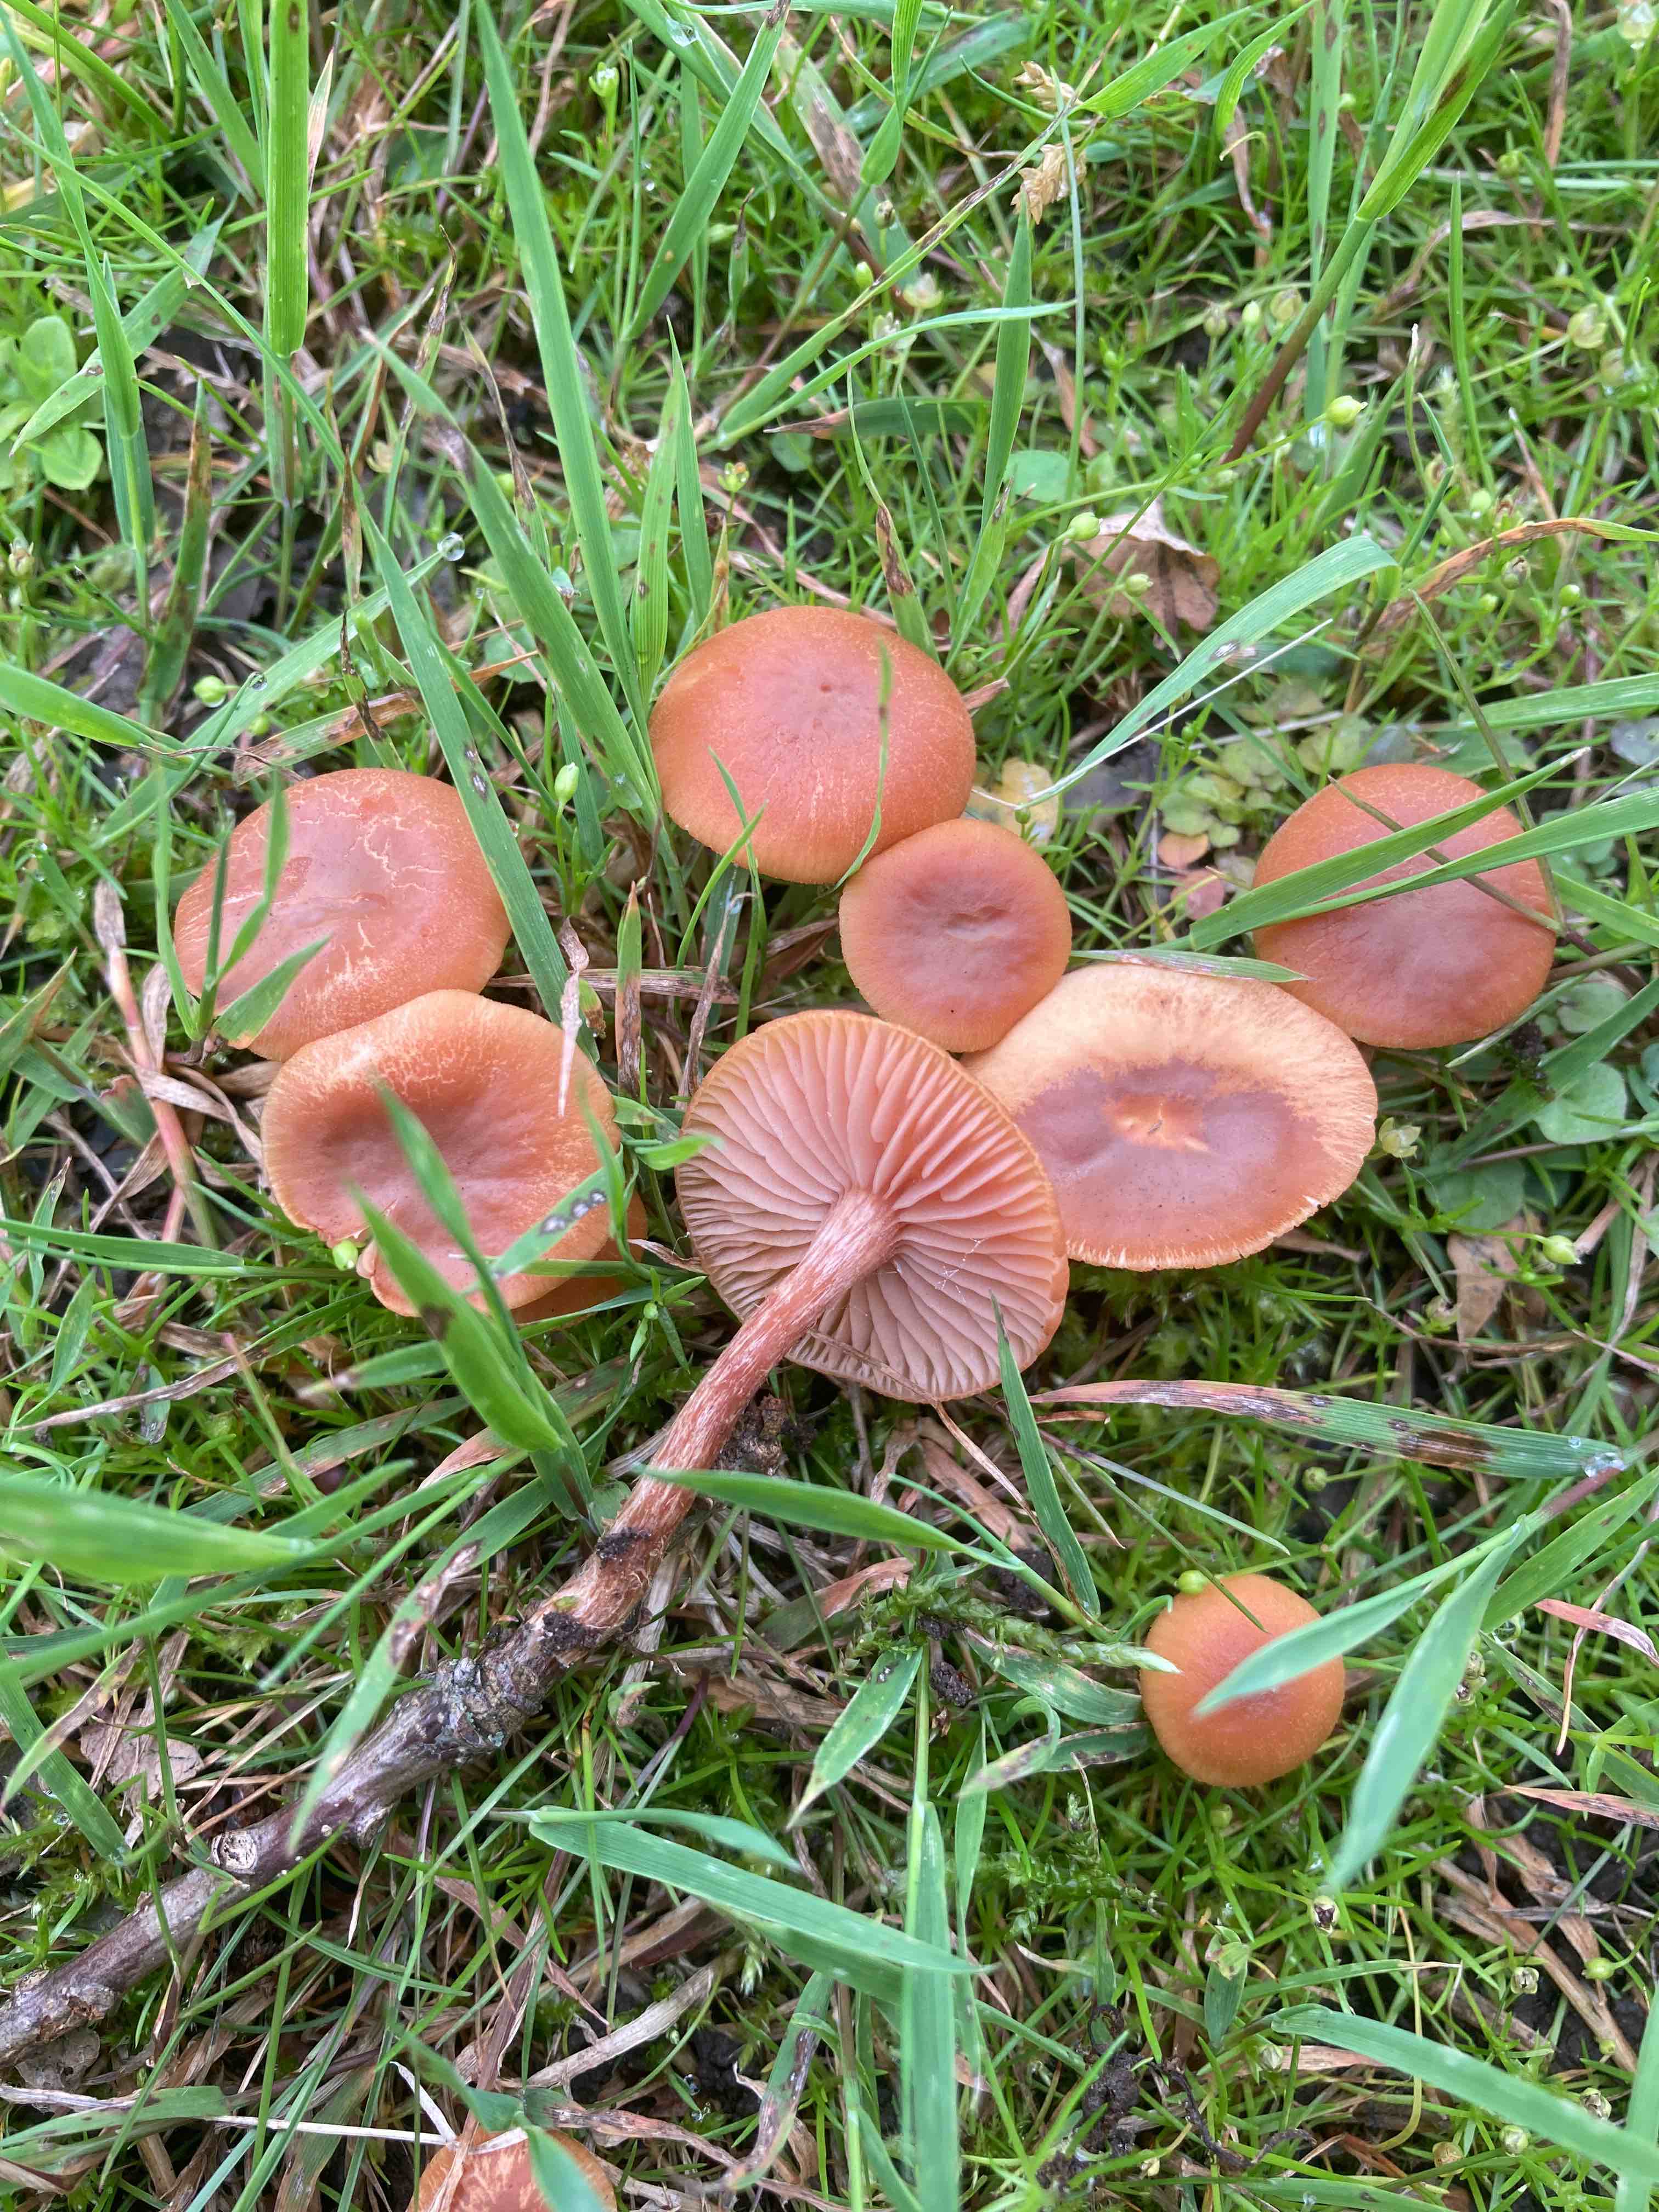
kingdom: Fungi
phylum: Basidiomycota
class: Agaricomycetes
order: Agaricales
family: Hydnangiaceae
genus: Laccaria
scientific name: Laccaria laccata
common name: rød ametysthat
